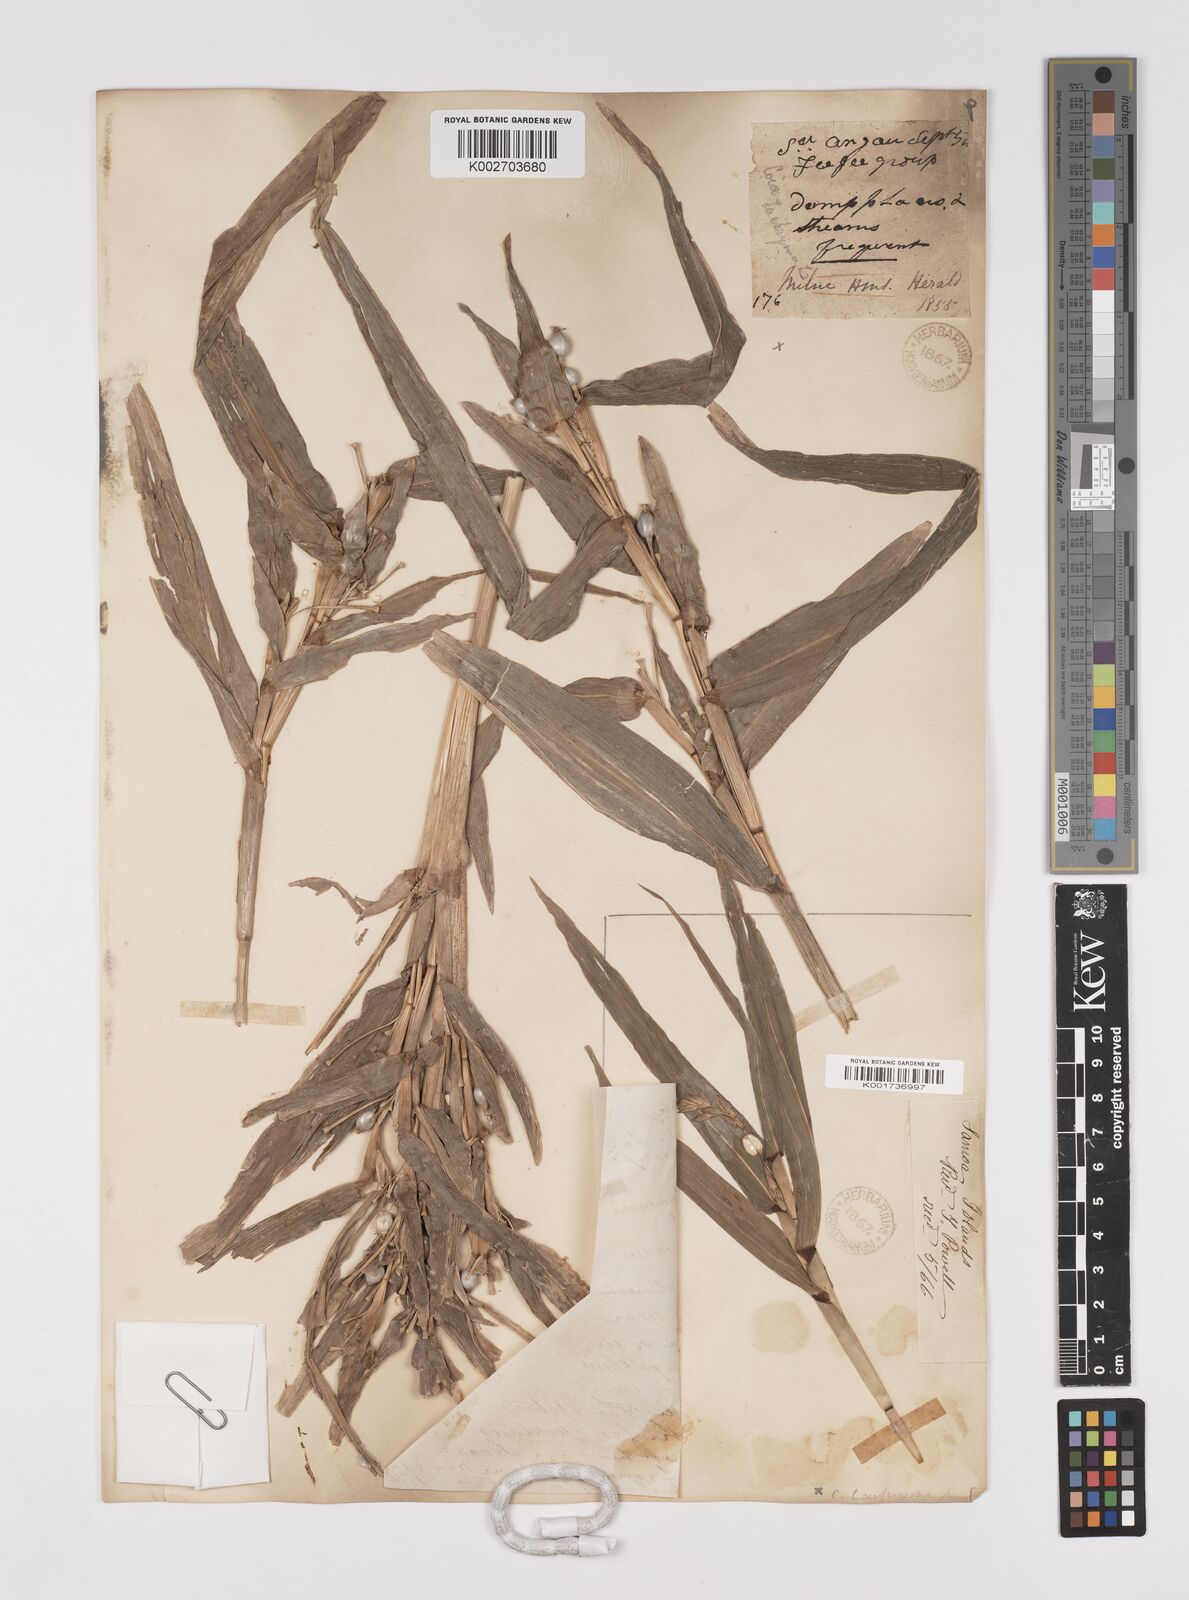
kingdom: Plantae
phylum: Tracheophyta
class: Liliopsida
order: Poales
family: Poaceae
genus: Coix
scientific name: Coix lacryma-jobi
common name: Job's tears
